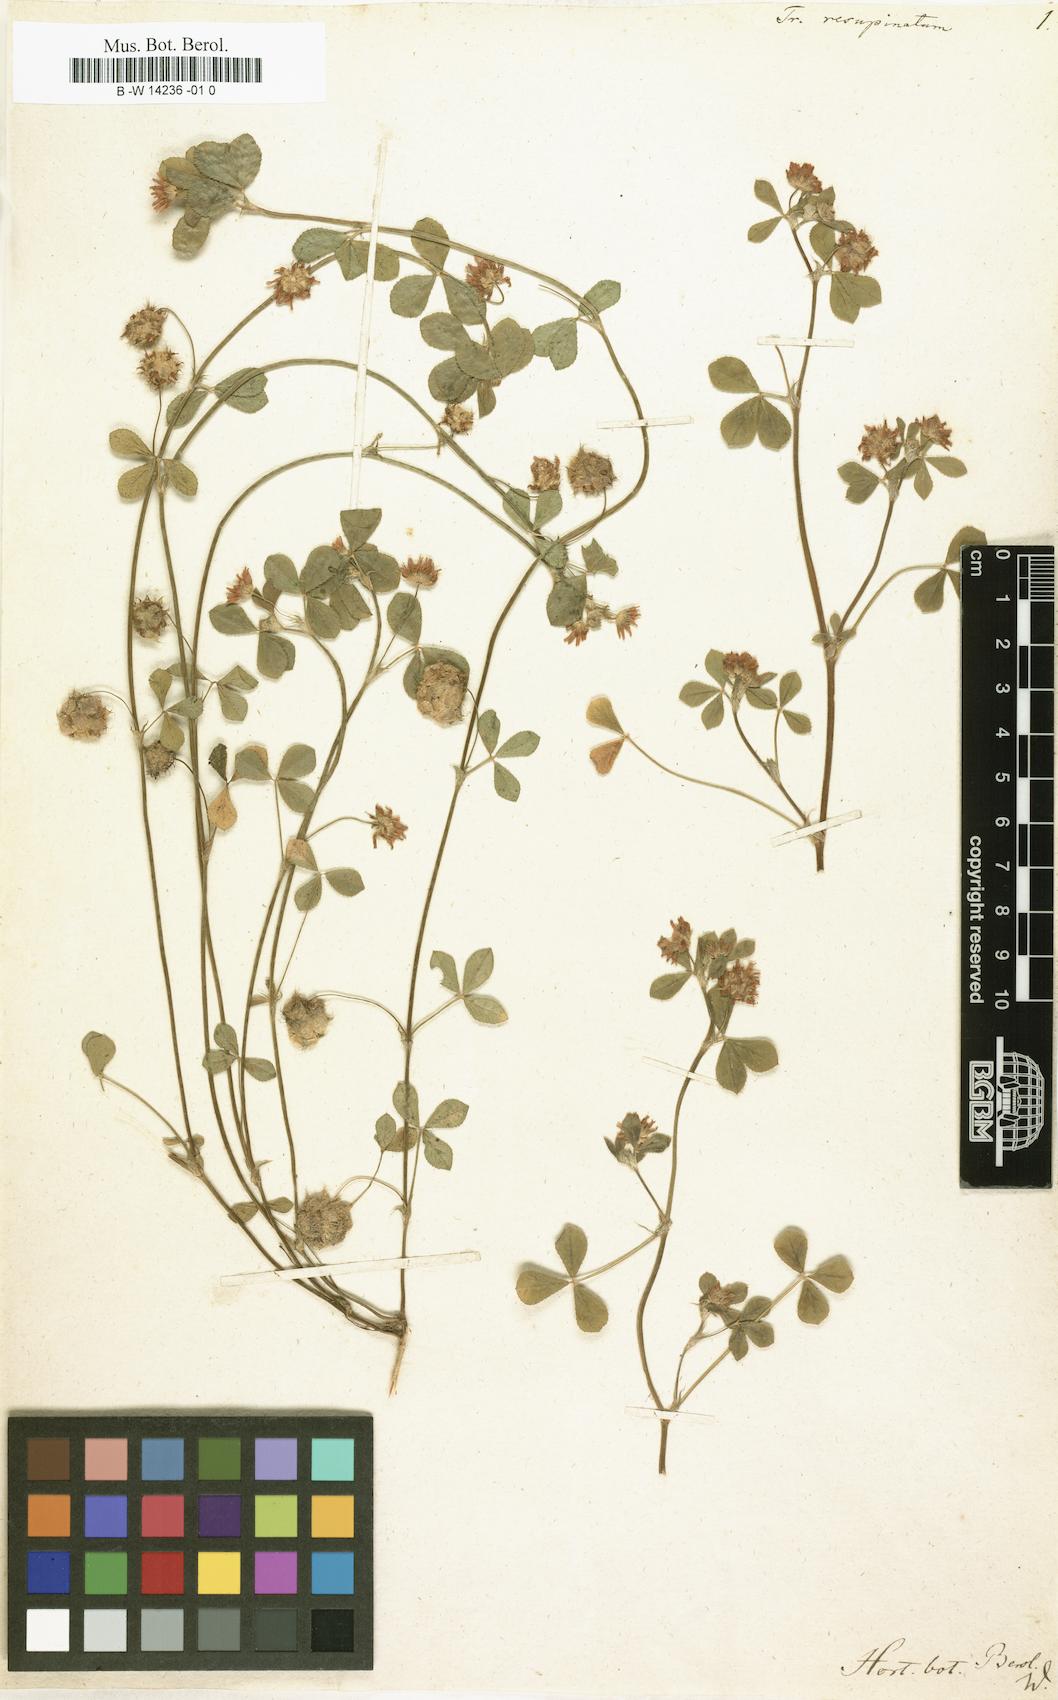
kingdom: Plantae
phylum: Tracheophyta
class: Magnoliopsida
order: Fabales
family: Fabaceae
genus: Trifolium
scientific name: Trifolium resupinatum
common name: Reversed clover
